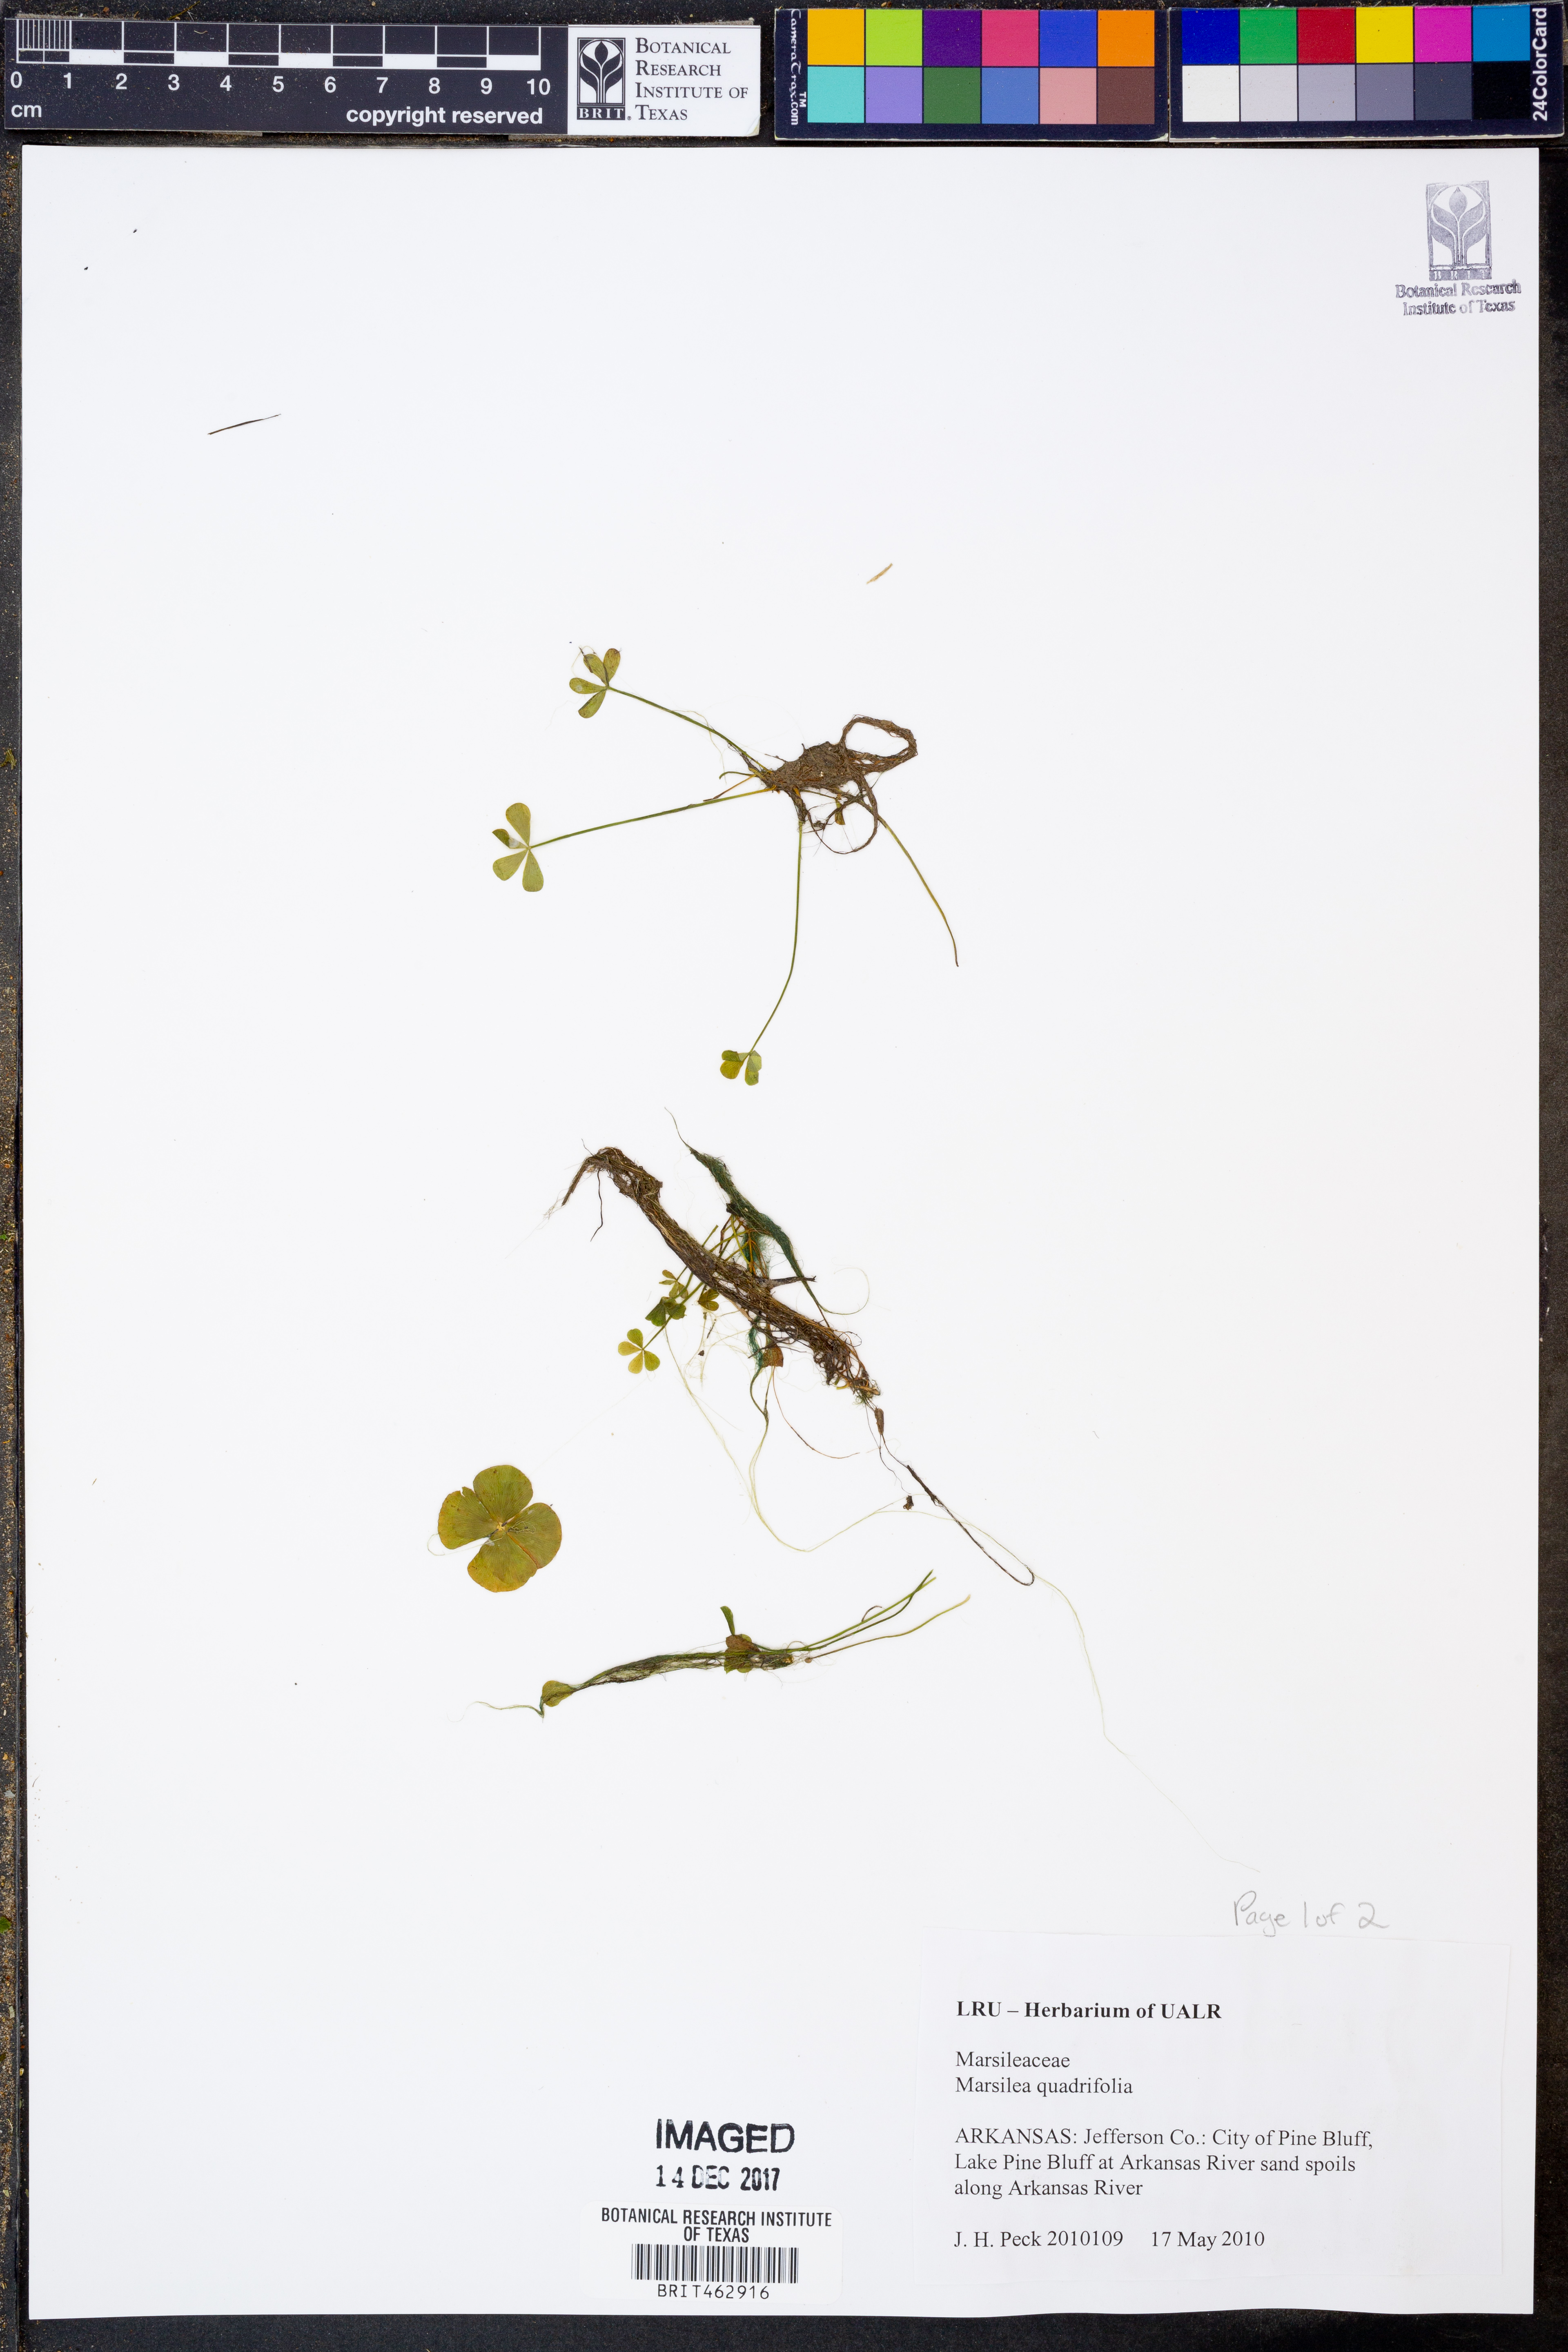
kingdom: Plantae
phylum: Tracheophyta
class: Polypodiopsida
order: Salviniales
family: Marsileaceae
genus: Marsilea
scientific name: Marsilea quadrifolia
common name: Water shamrock
